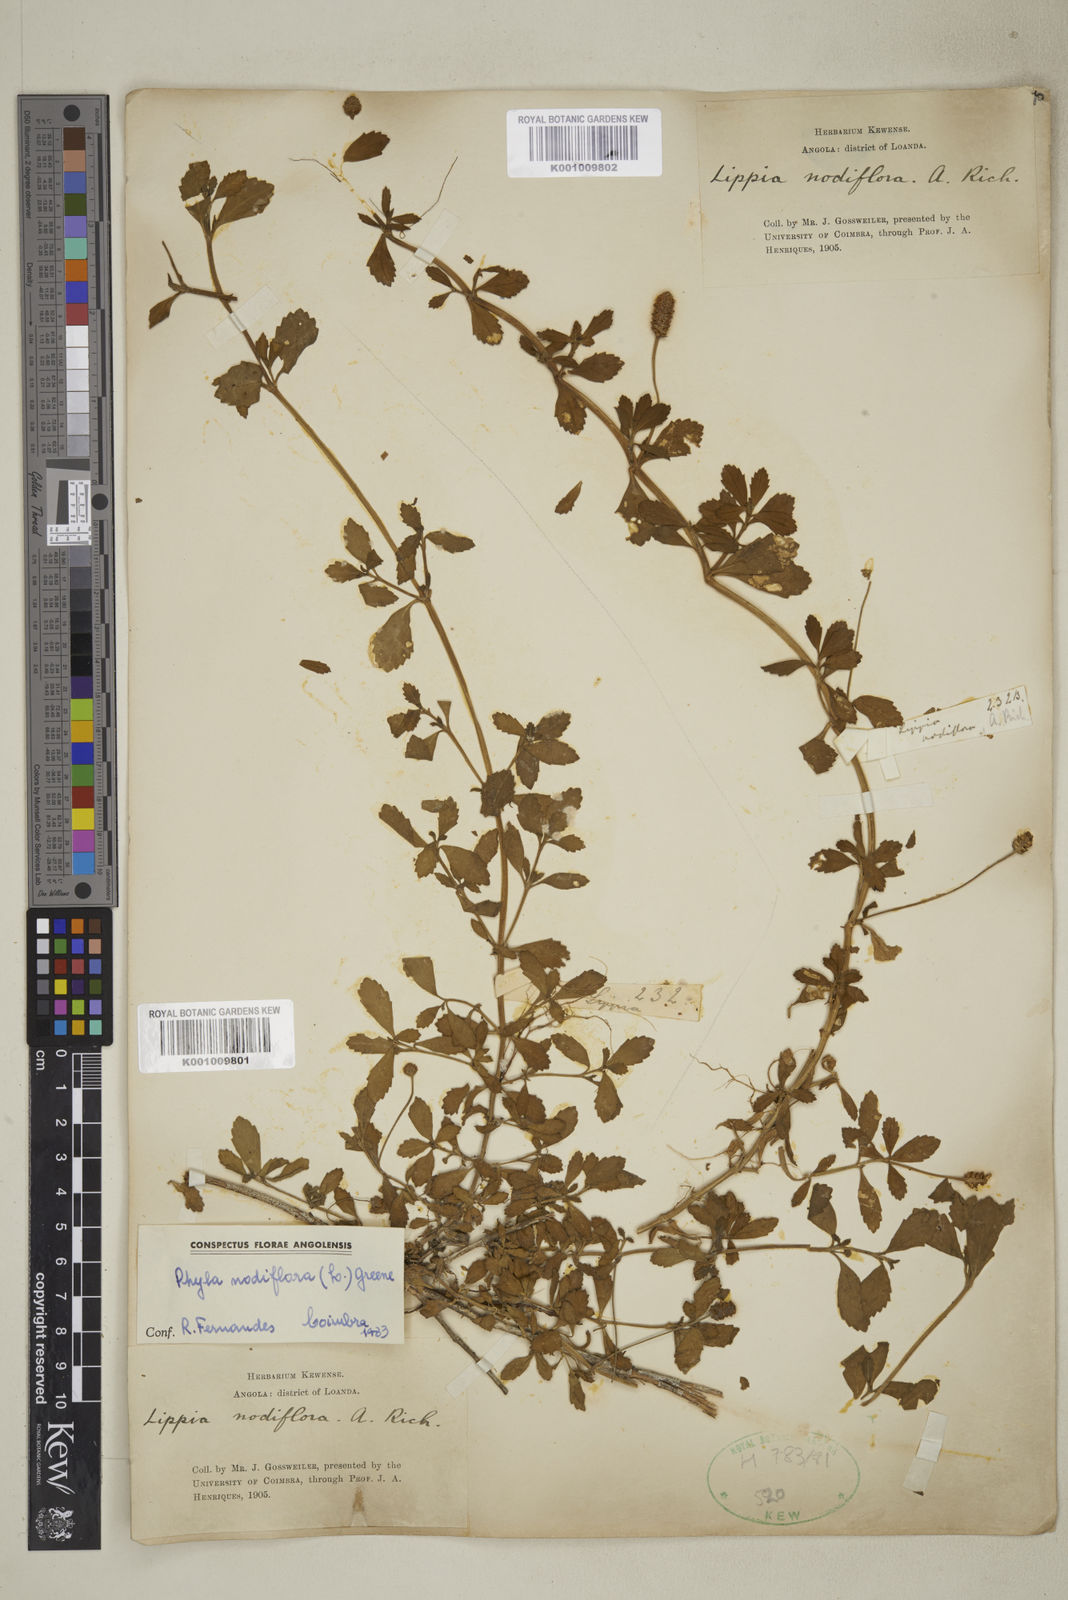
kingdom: Plantae
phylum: Tracheophyta
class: Magnoliopsida
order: Lamiales
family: Verbenaceae
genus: Phyla
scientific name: Phyla nodiflora
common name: Frogfruit
